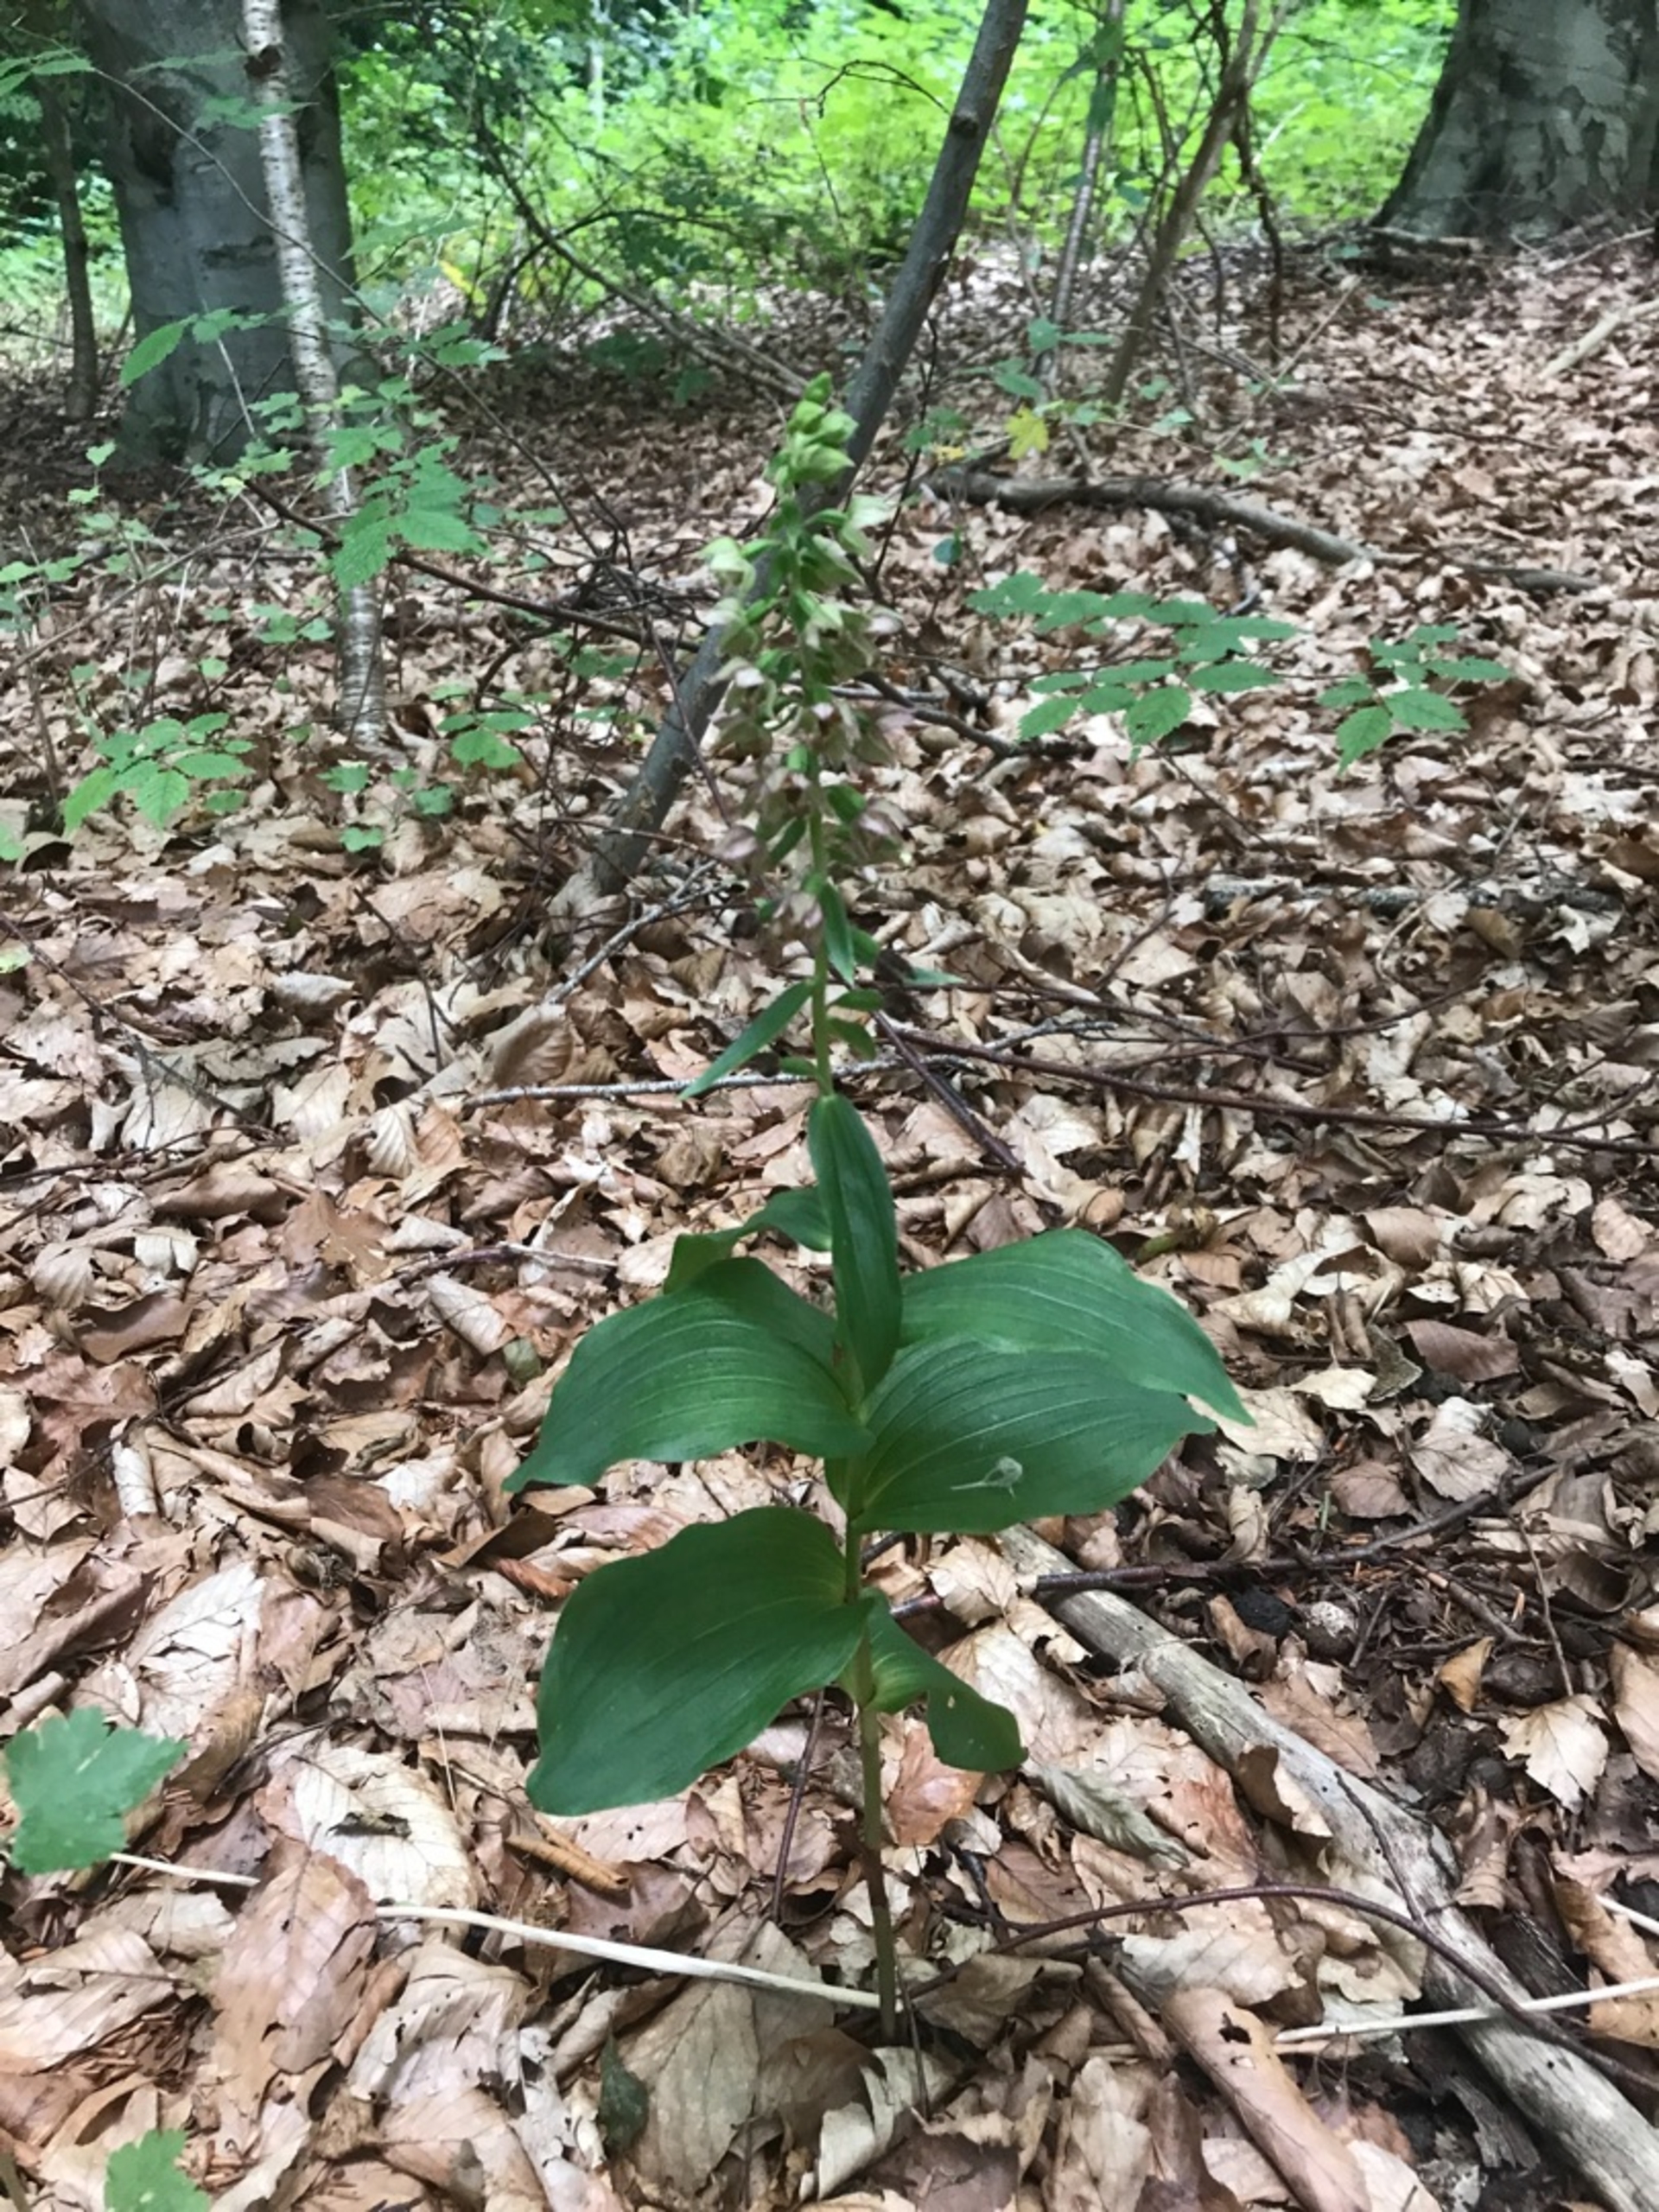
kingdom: Plantae
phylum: Tracheophyta
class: Liliopsida
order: Asparagales
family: Orchidaceae
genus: Epipactis
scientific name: Epipactis helleborine
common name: Skov-hullæbe
